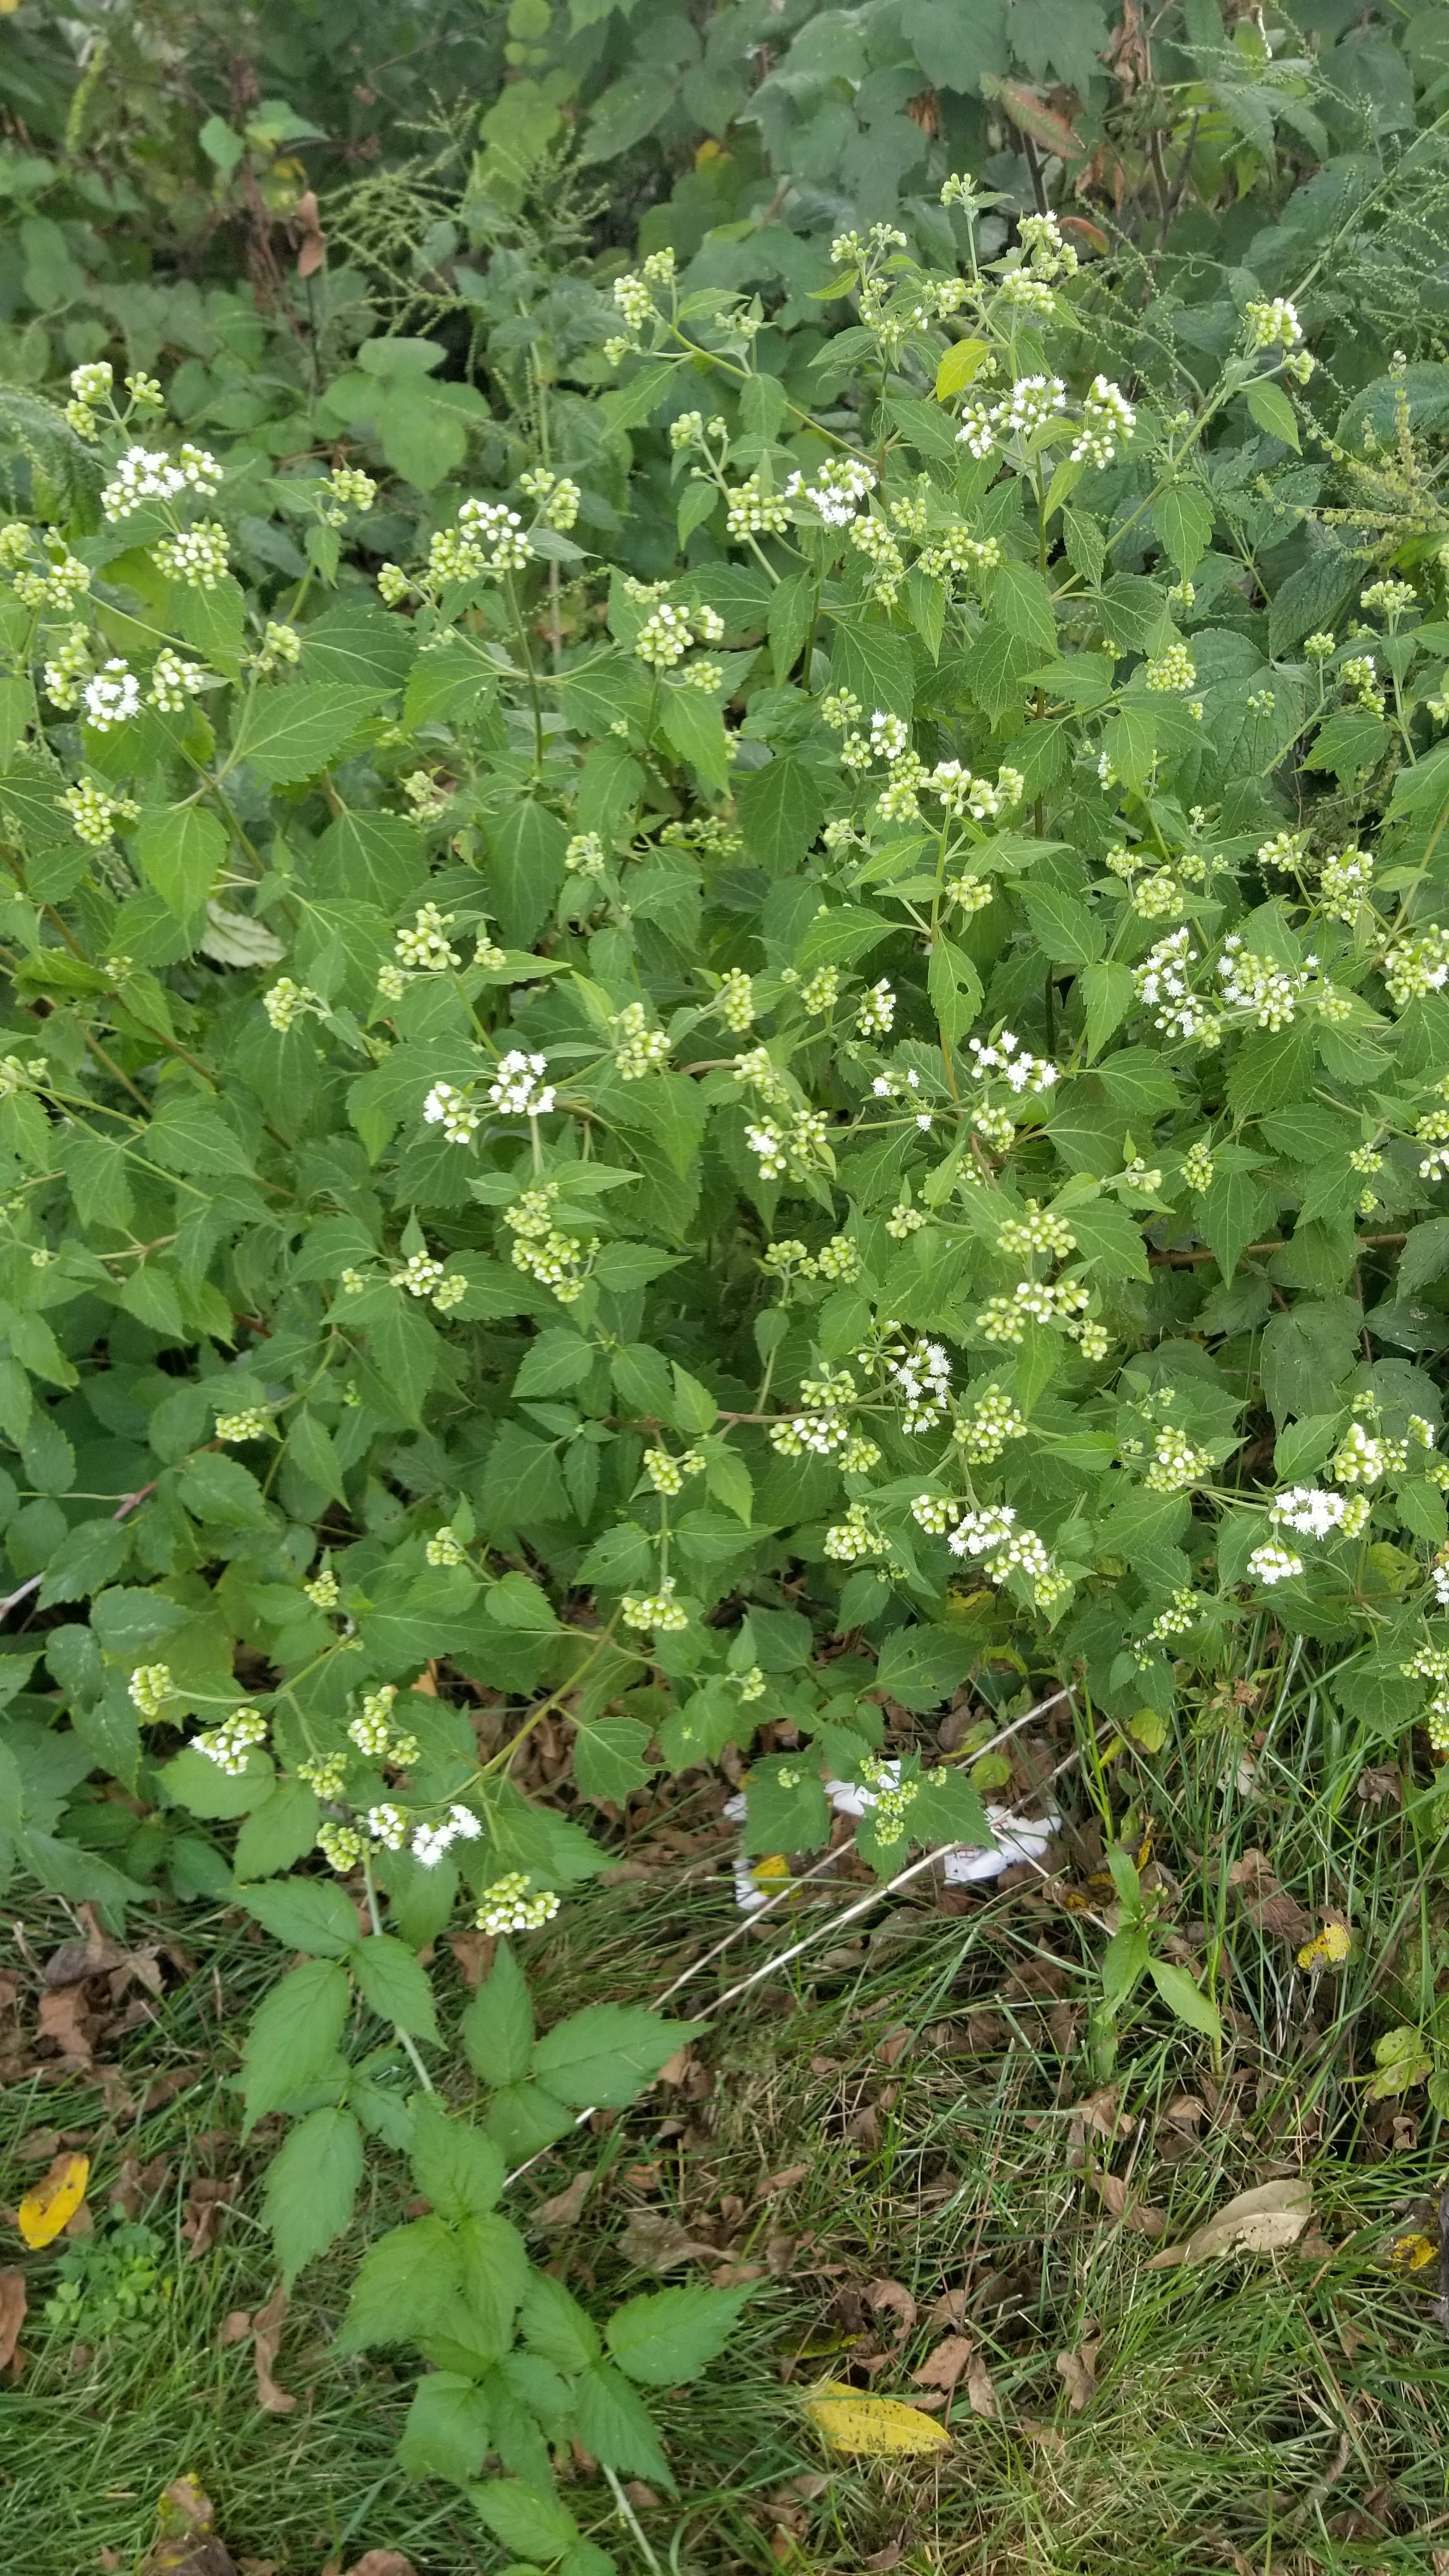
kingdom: Plantae
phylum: Tracheophyta
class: Magnoliopsida
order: Asterales
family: Asteraceae
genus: Ageratina
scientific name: Ageratina altissima
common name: White snakeroot
